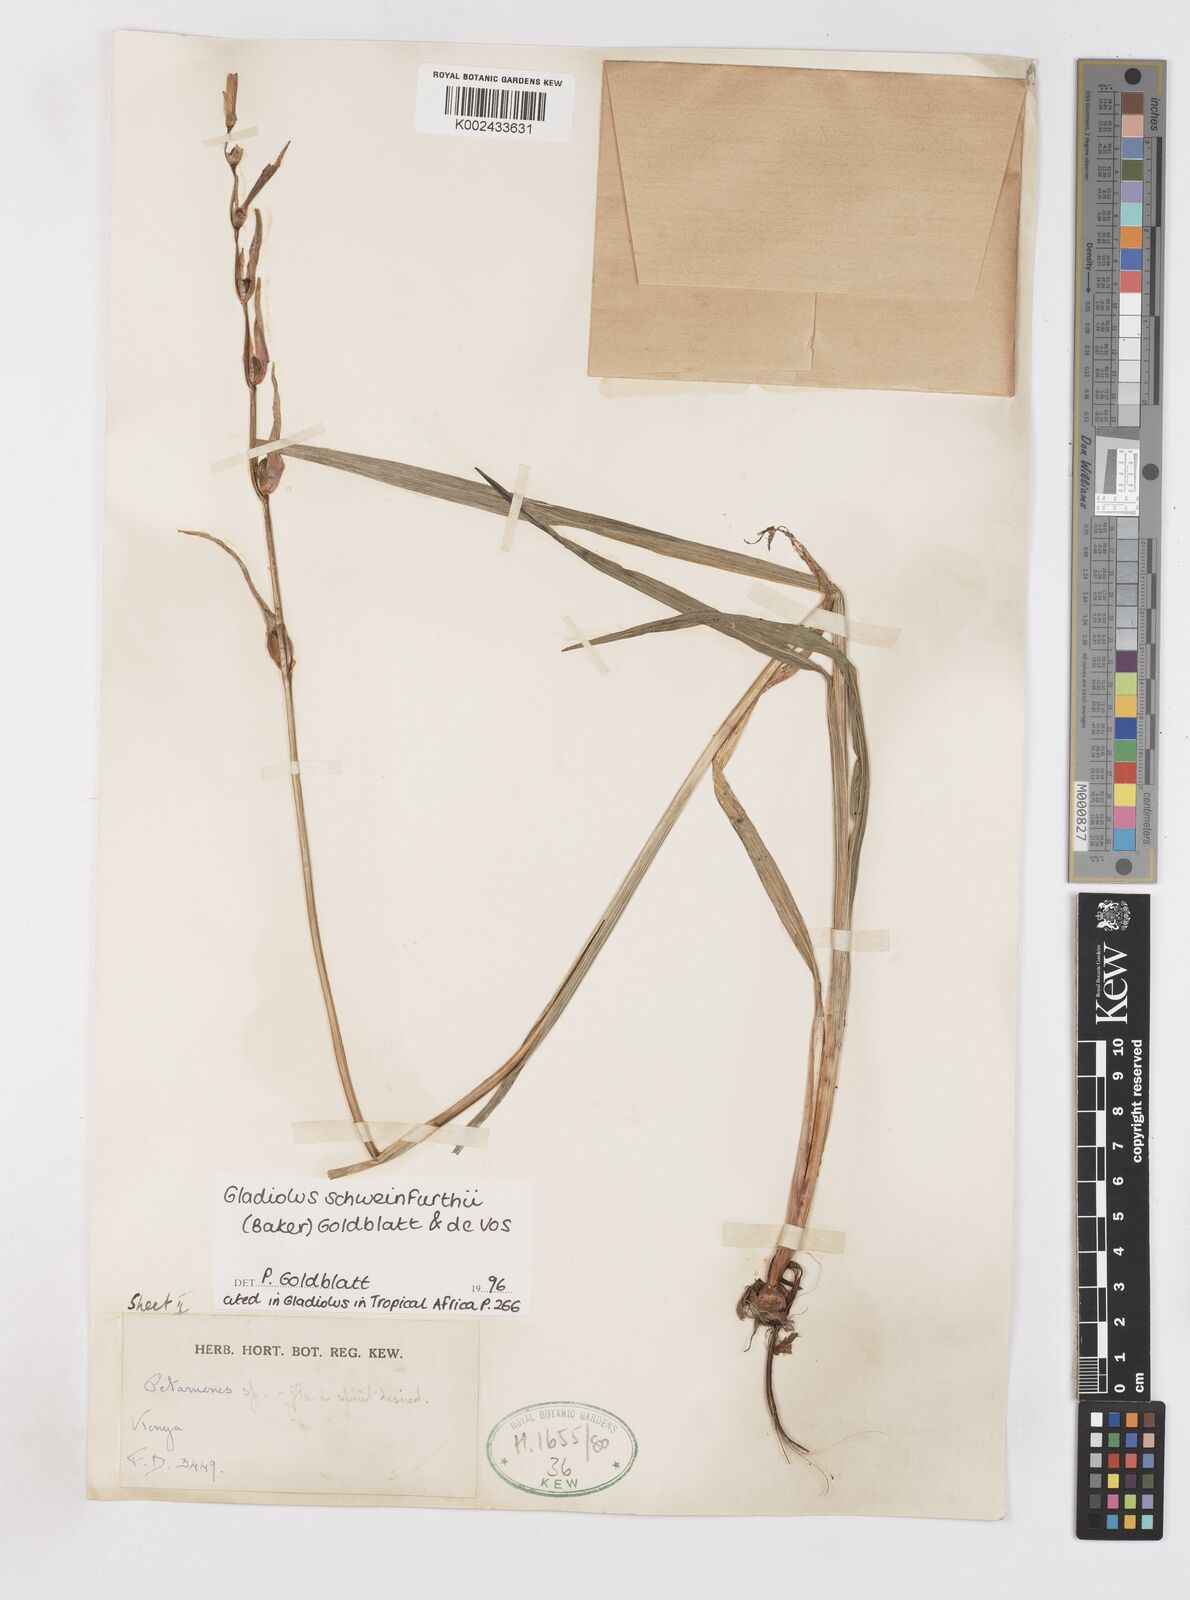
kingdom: Plantae
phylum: Tracheophyta
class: Liliopsida
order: Asparagales
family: Iridaceae
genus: Gladiolus
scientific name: Gladiolus schweinfurthii
